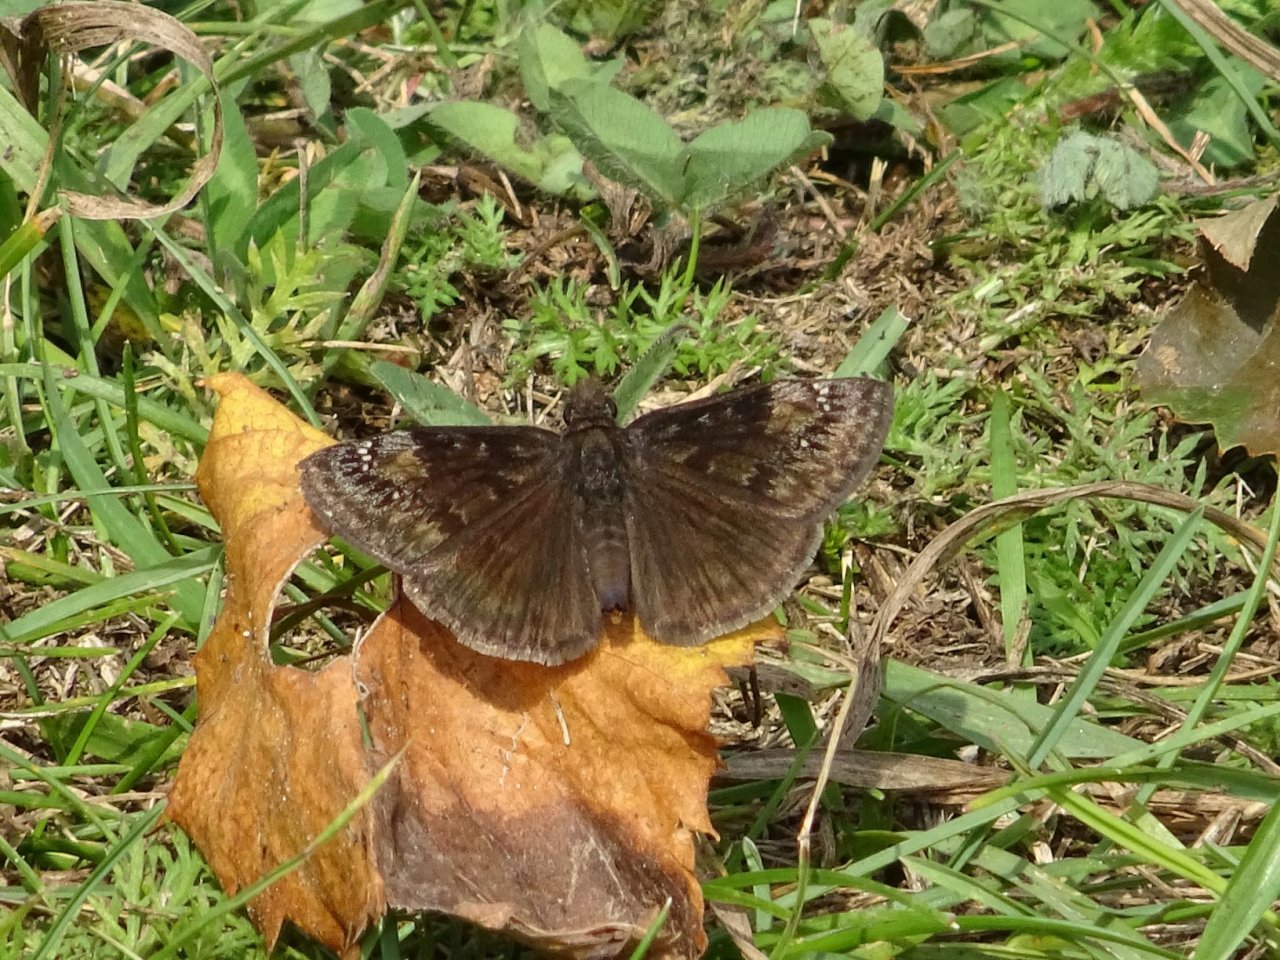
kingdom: Animalia
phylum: Arthropoda
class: Insecta
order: Lepidoptera
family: Hesperiidae
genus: Gesta
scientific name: Gesta
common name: Wild Indigo Duskywing
